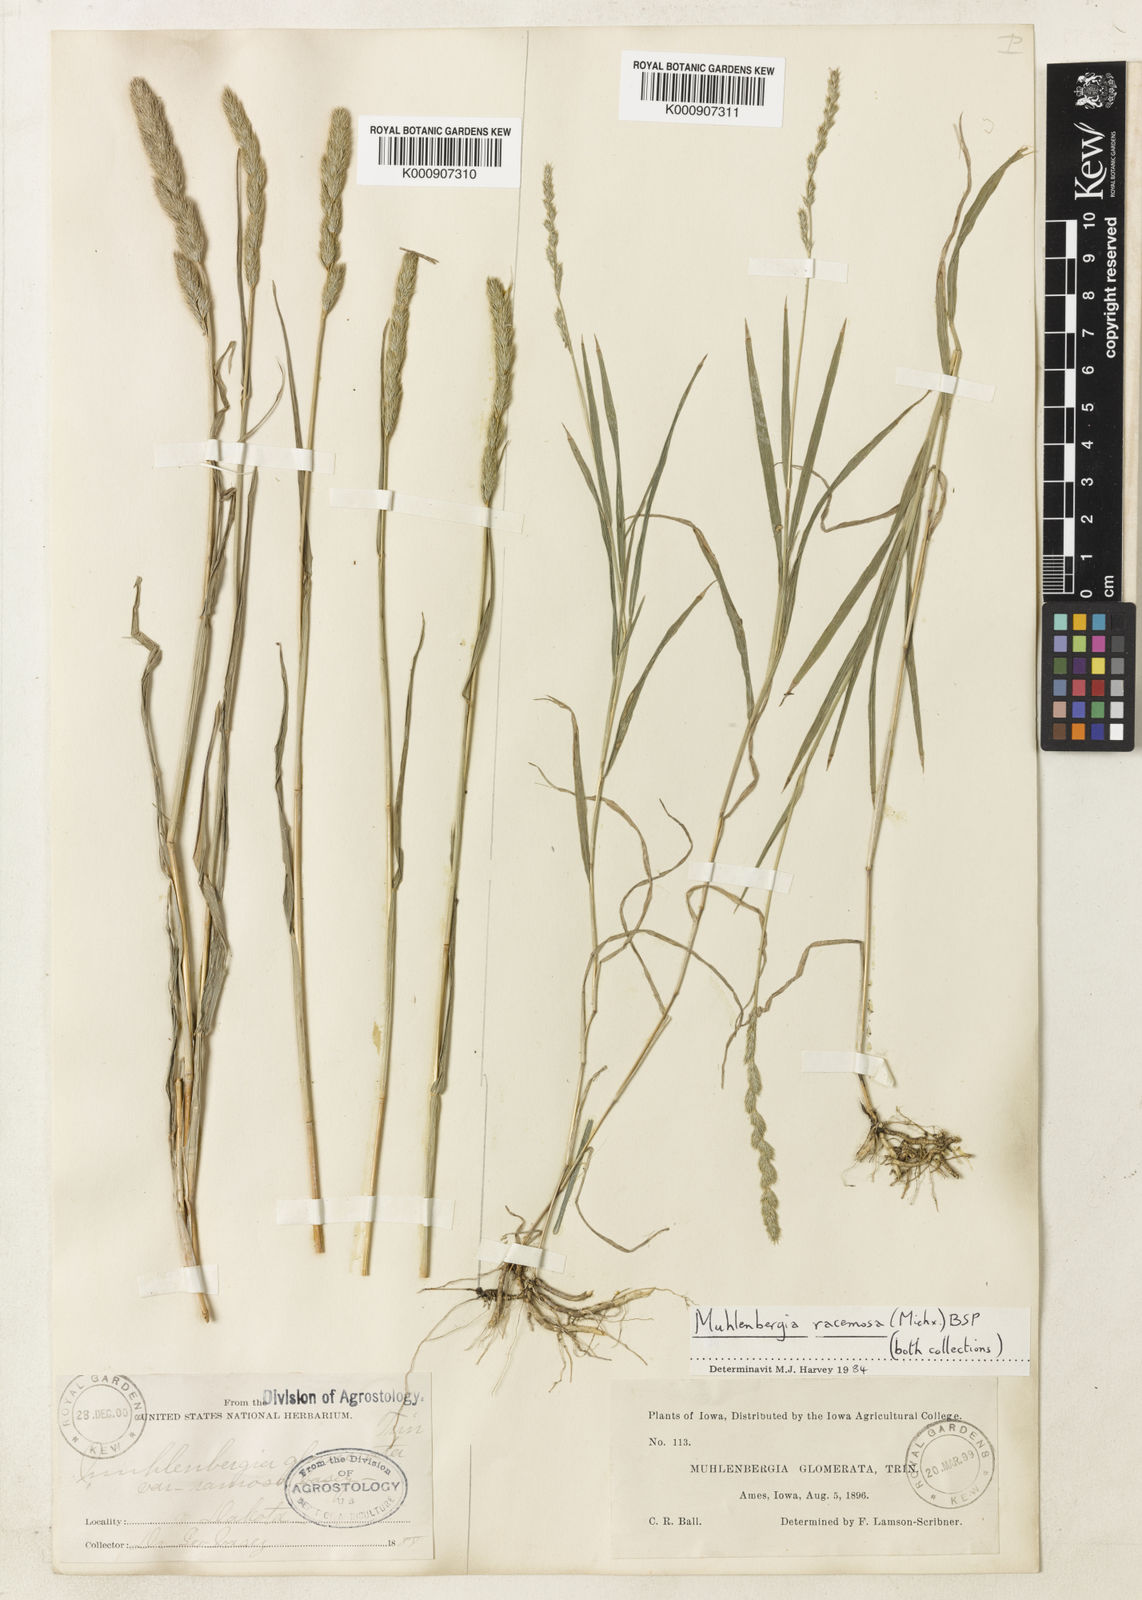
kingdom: Plantae
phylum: Tracheophyta
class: Liliopsida
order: Poales
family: Poaceae
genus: Muhlenbergia
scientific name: Muhlenbergia
